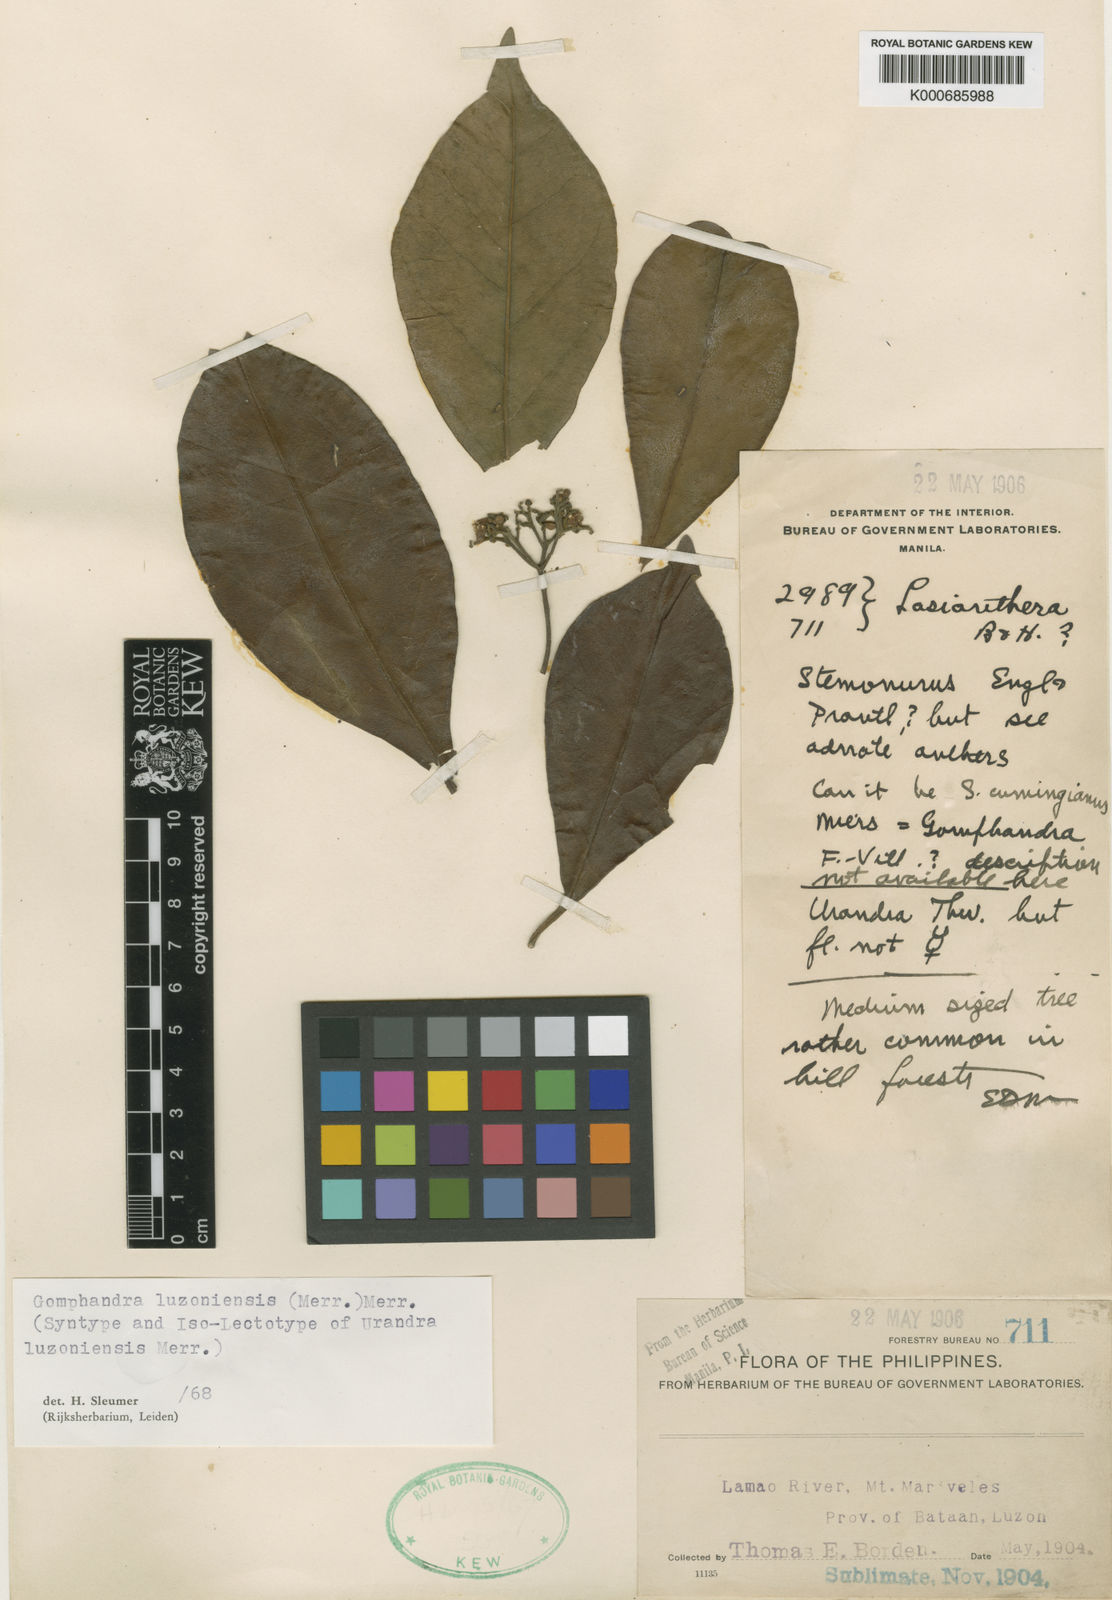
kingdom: Plantae
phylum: Tracheophyta
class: Magnoliopsida
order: Cardiopteridales
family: Stemonuraceae
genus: Gomphandra
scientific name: Gomphandra luzoniensis
